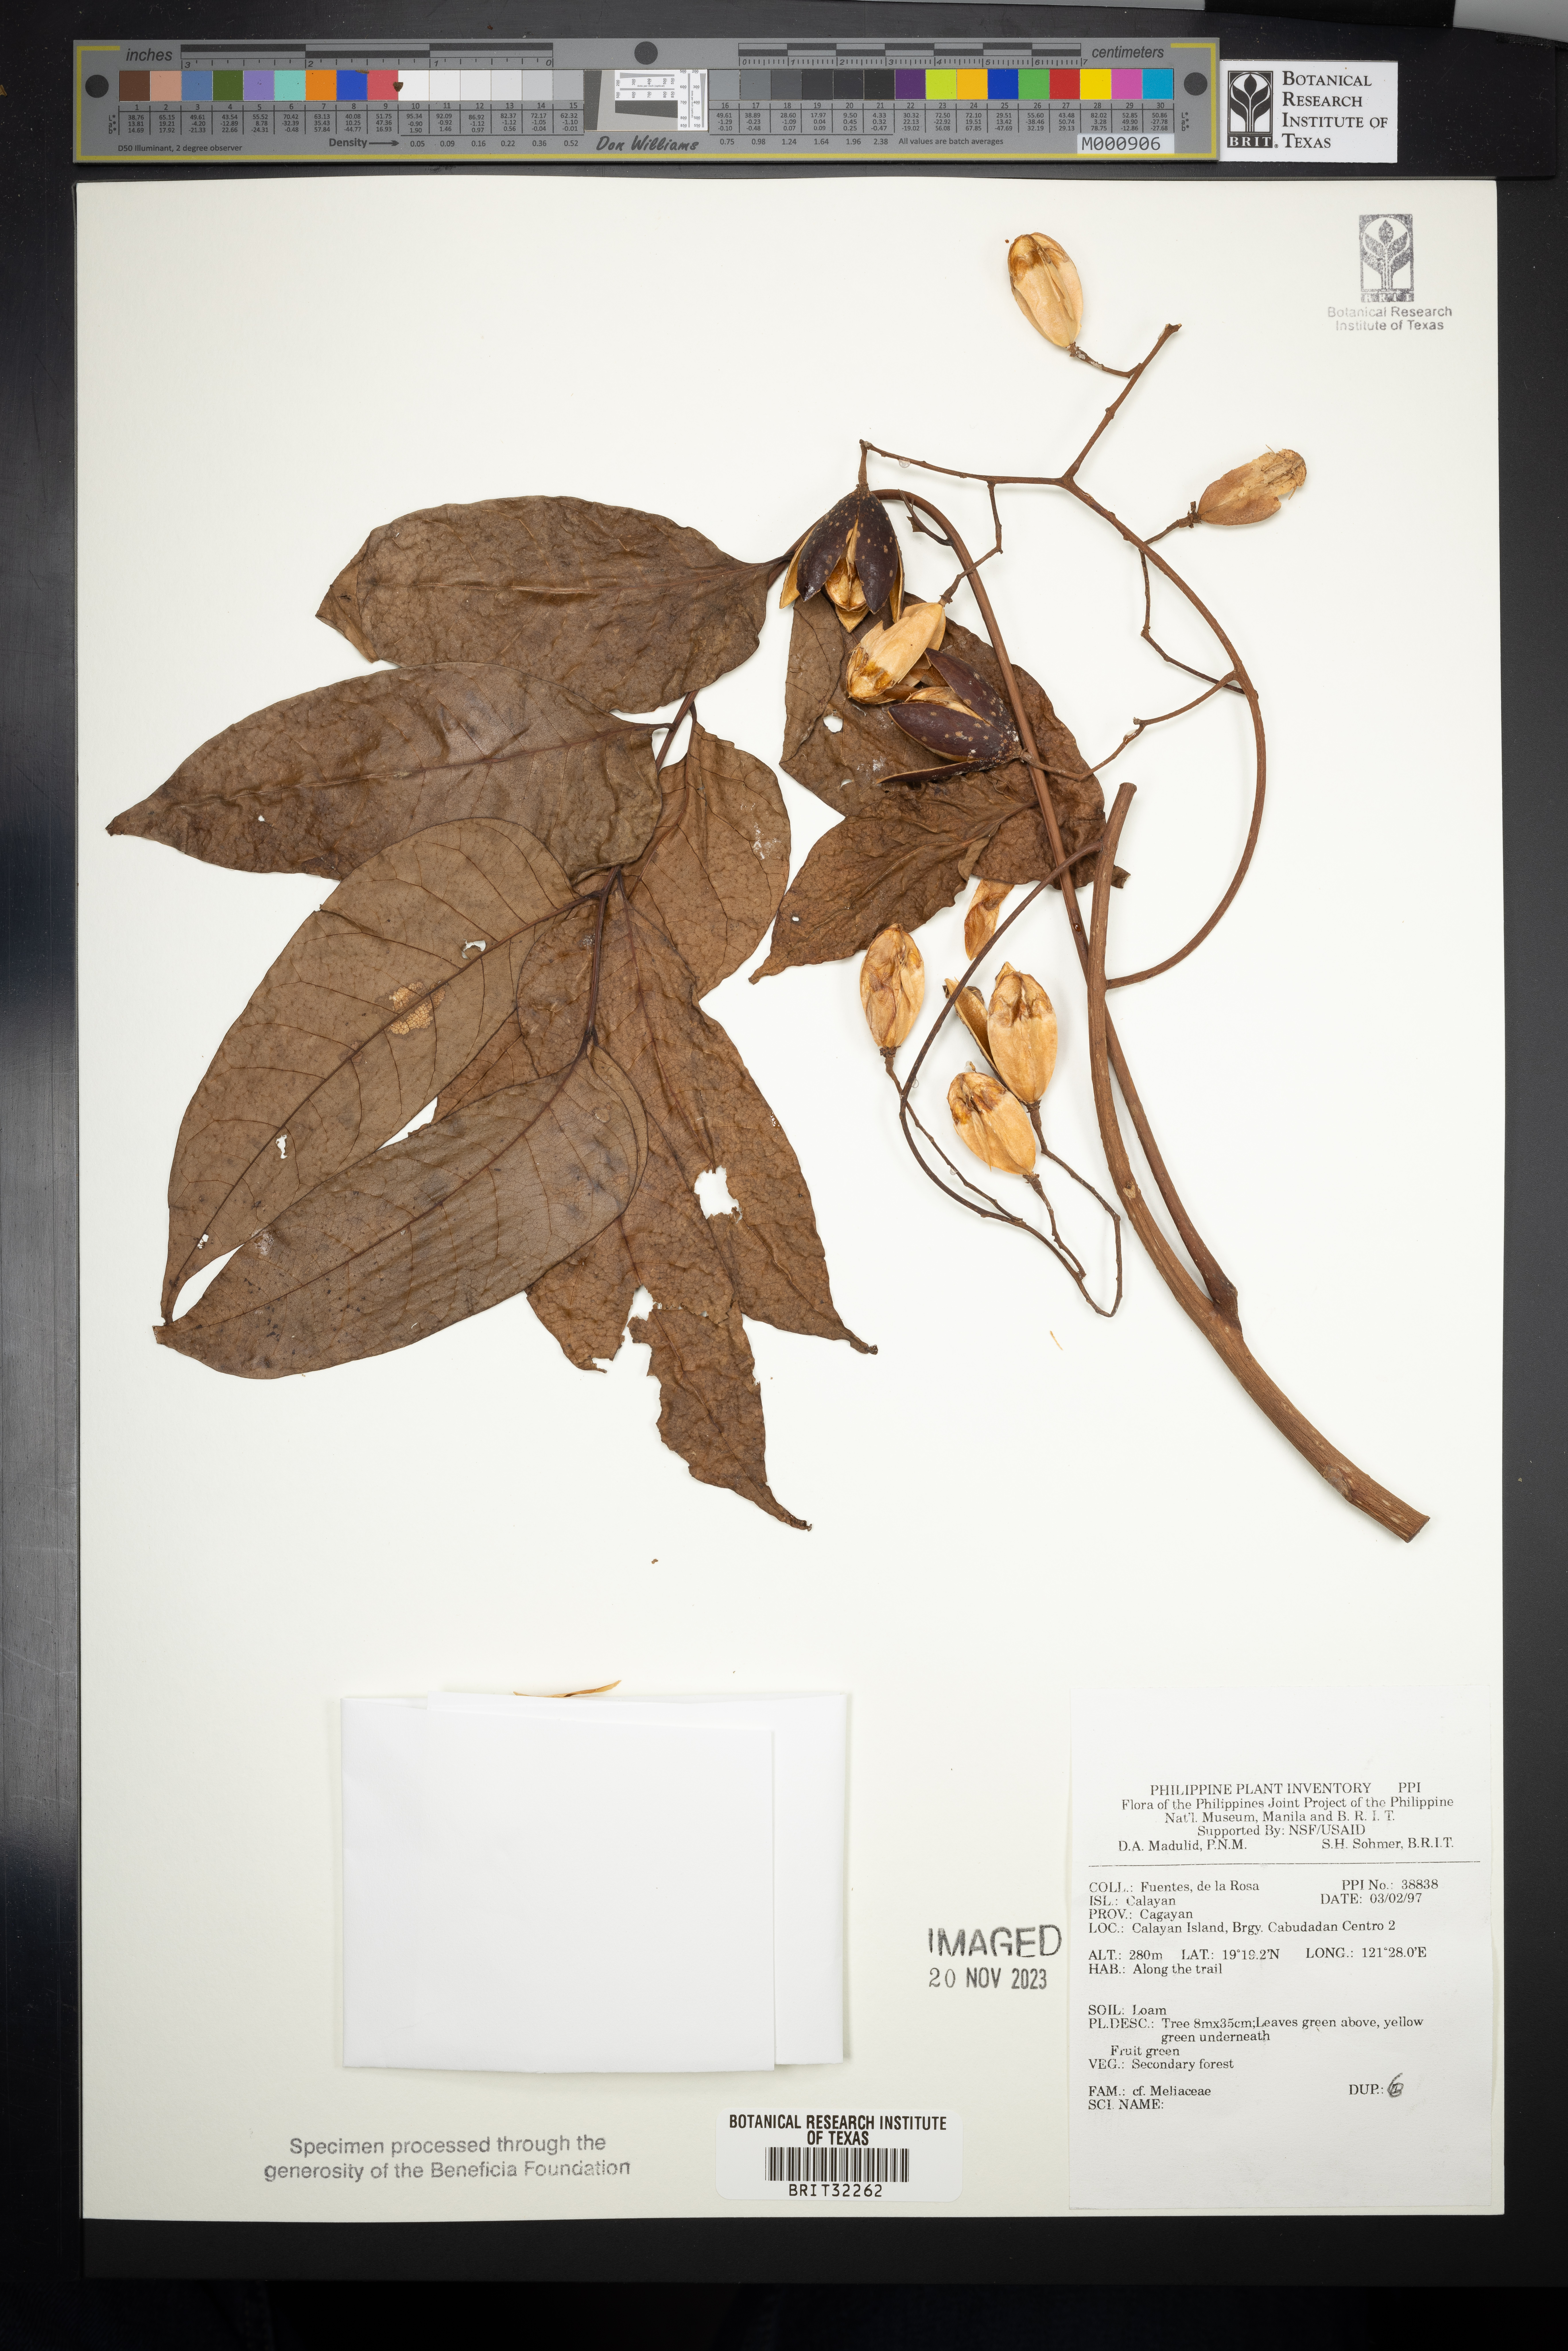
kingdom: Plantae
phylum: Tracheophyta
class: Magnoliopsida
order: Sapindales
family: Meliaceae
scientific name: Meliaceae
